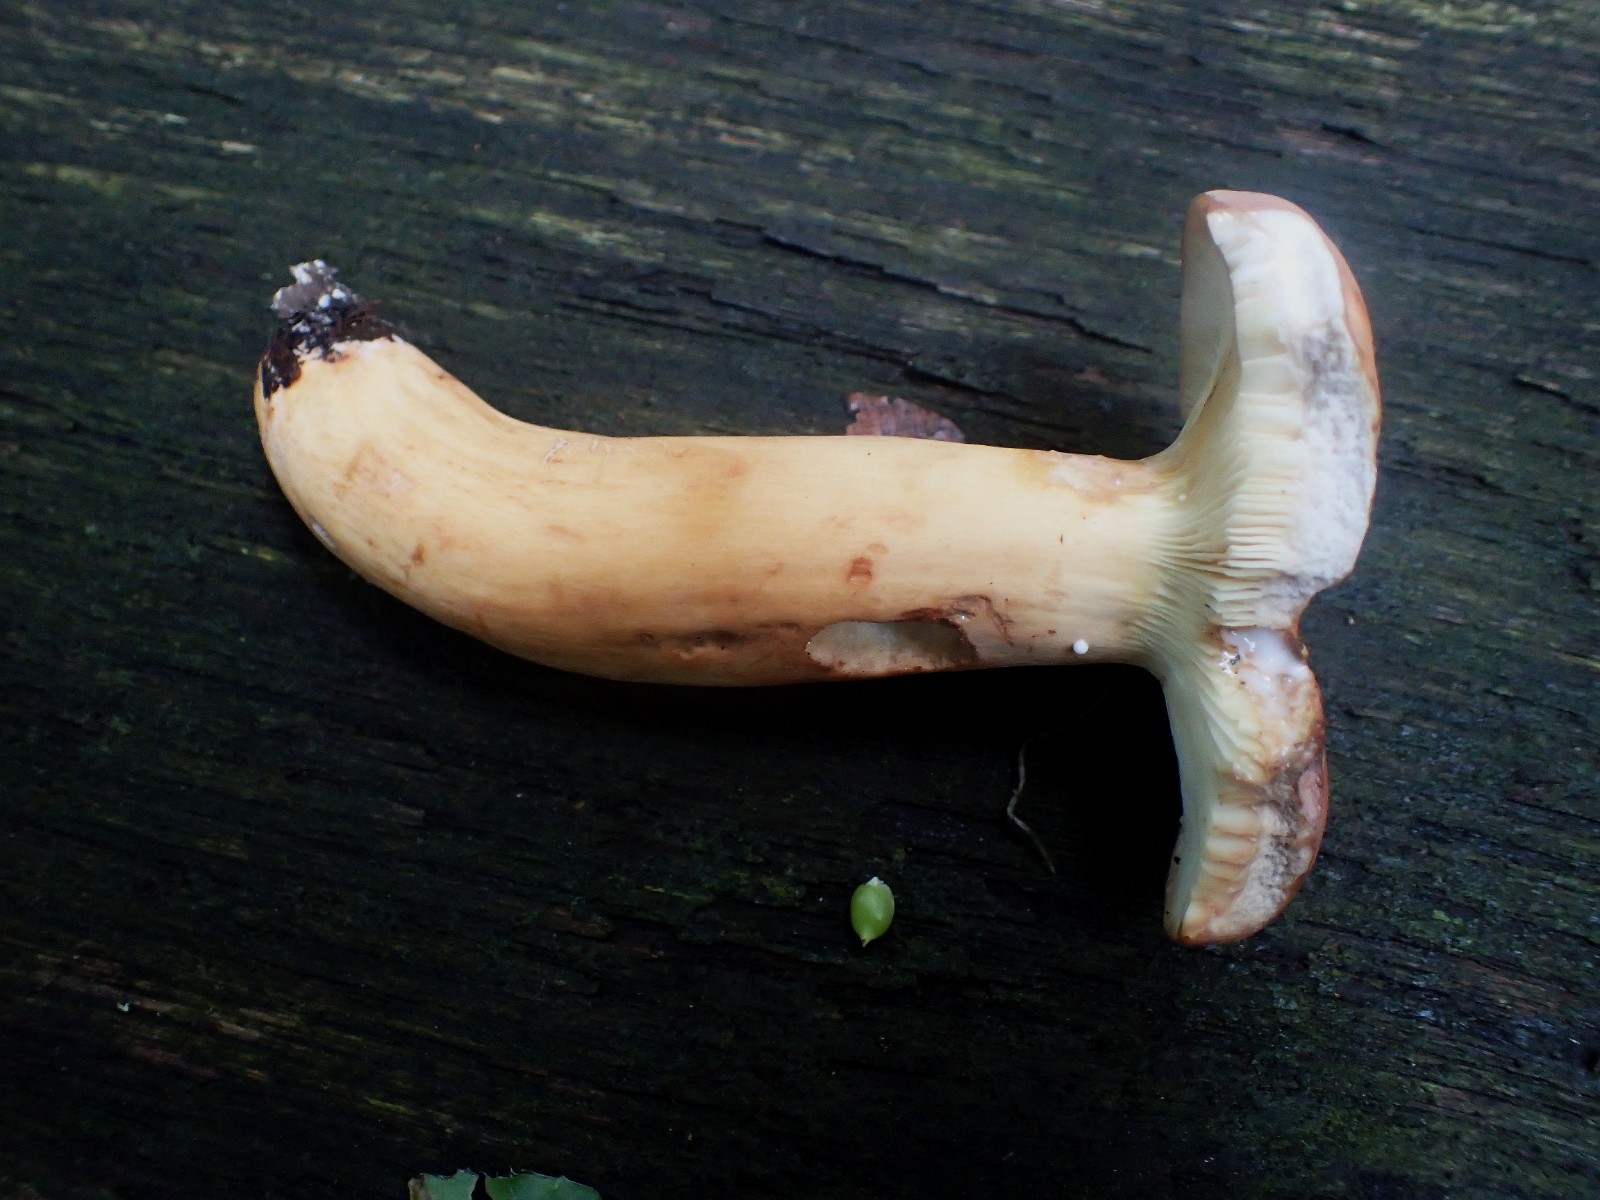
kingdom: Fungi
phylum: Basidiomycota
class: Agaricomycetes
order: Russulales
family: Russulaceae
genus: Lactarius
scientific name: Lactarius subdulcis
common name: sødlig mælkehat
